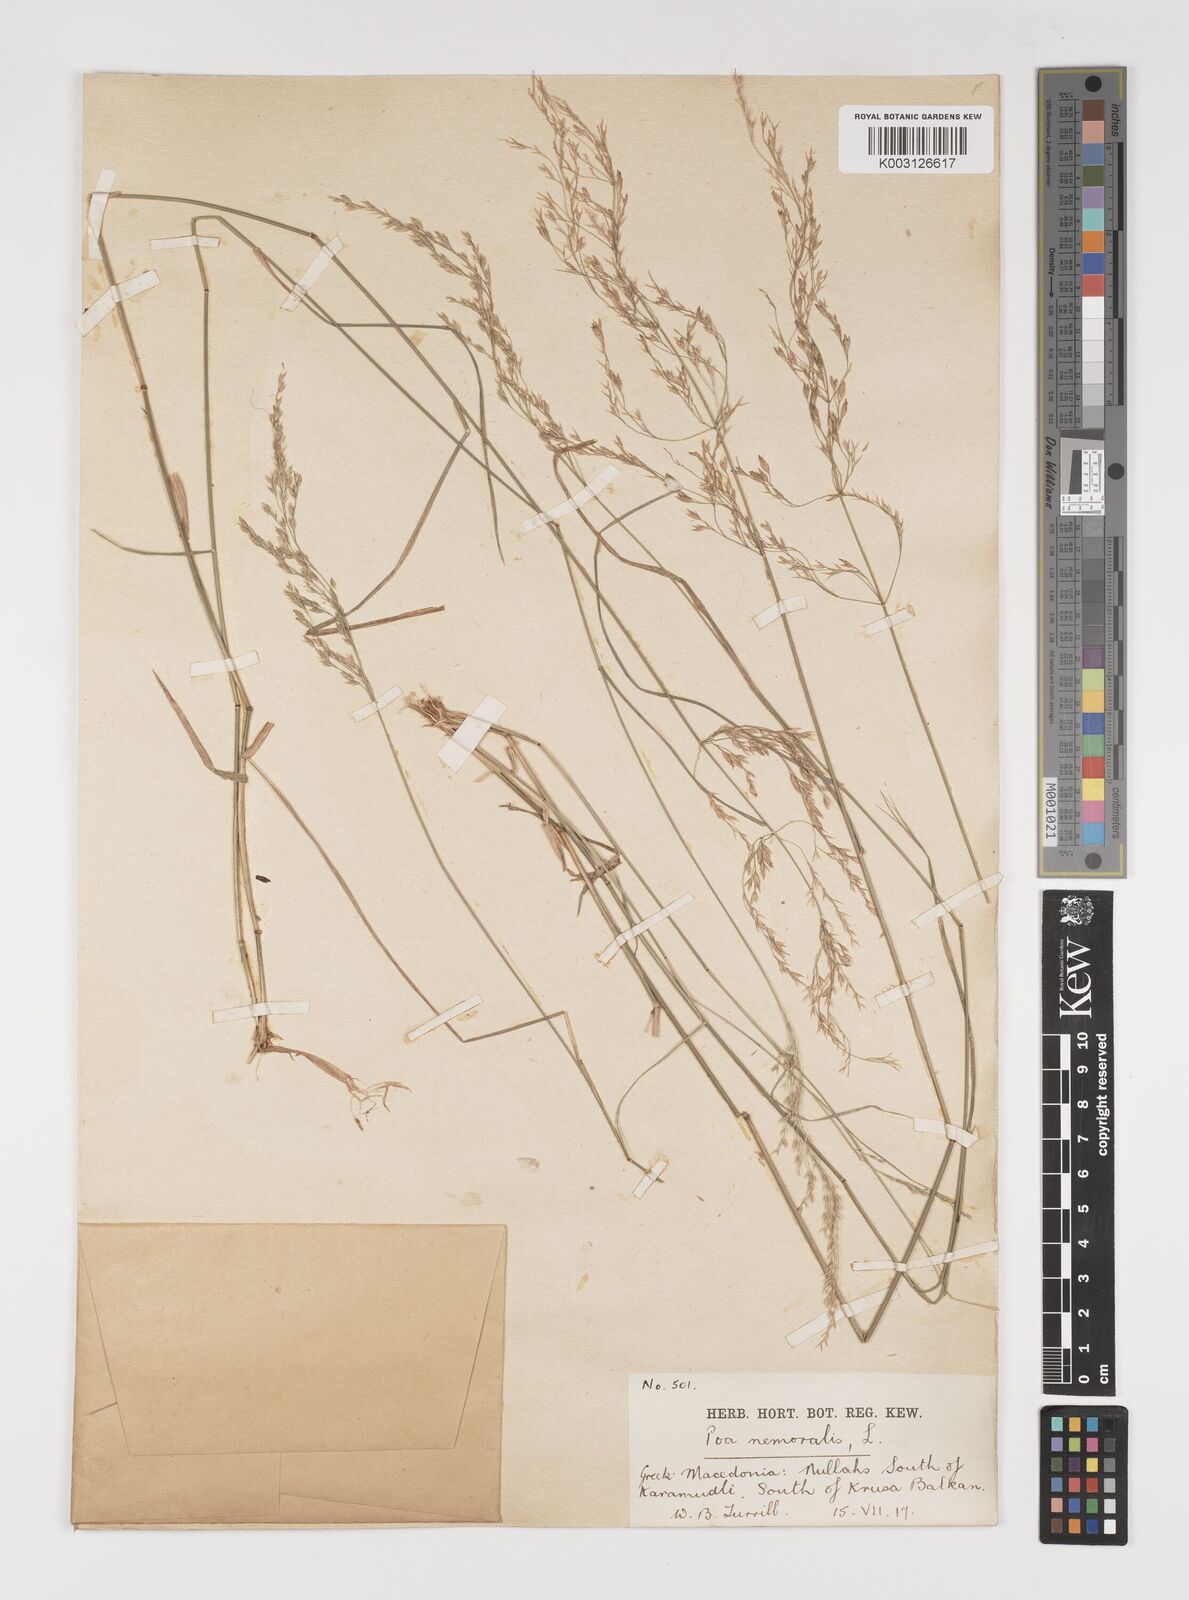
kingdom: Plantae
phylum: Tracheophyta
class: Liliopsida
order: Poales
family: Poaceae
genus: Poa
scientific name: Poa nemoralis
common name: Wood bluegrass
